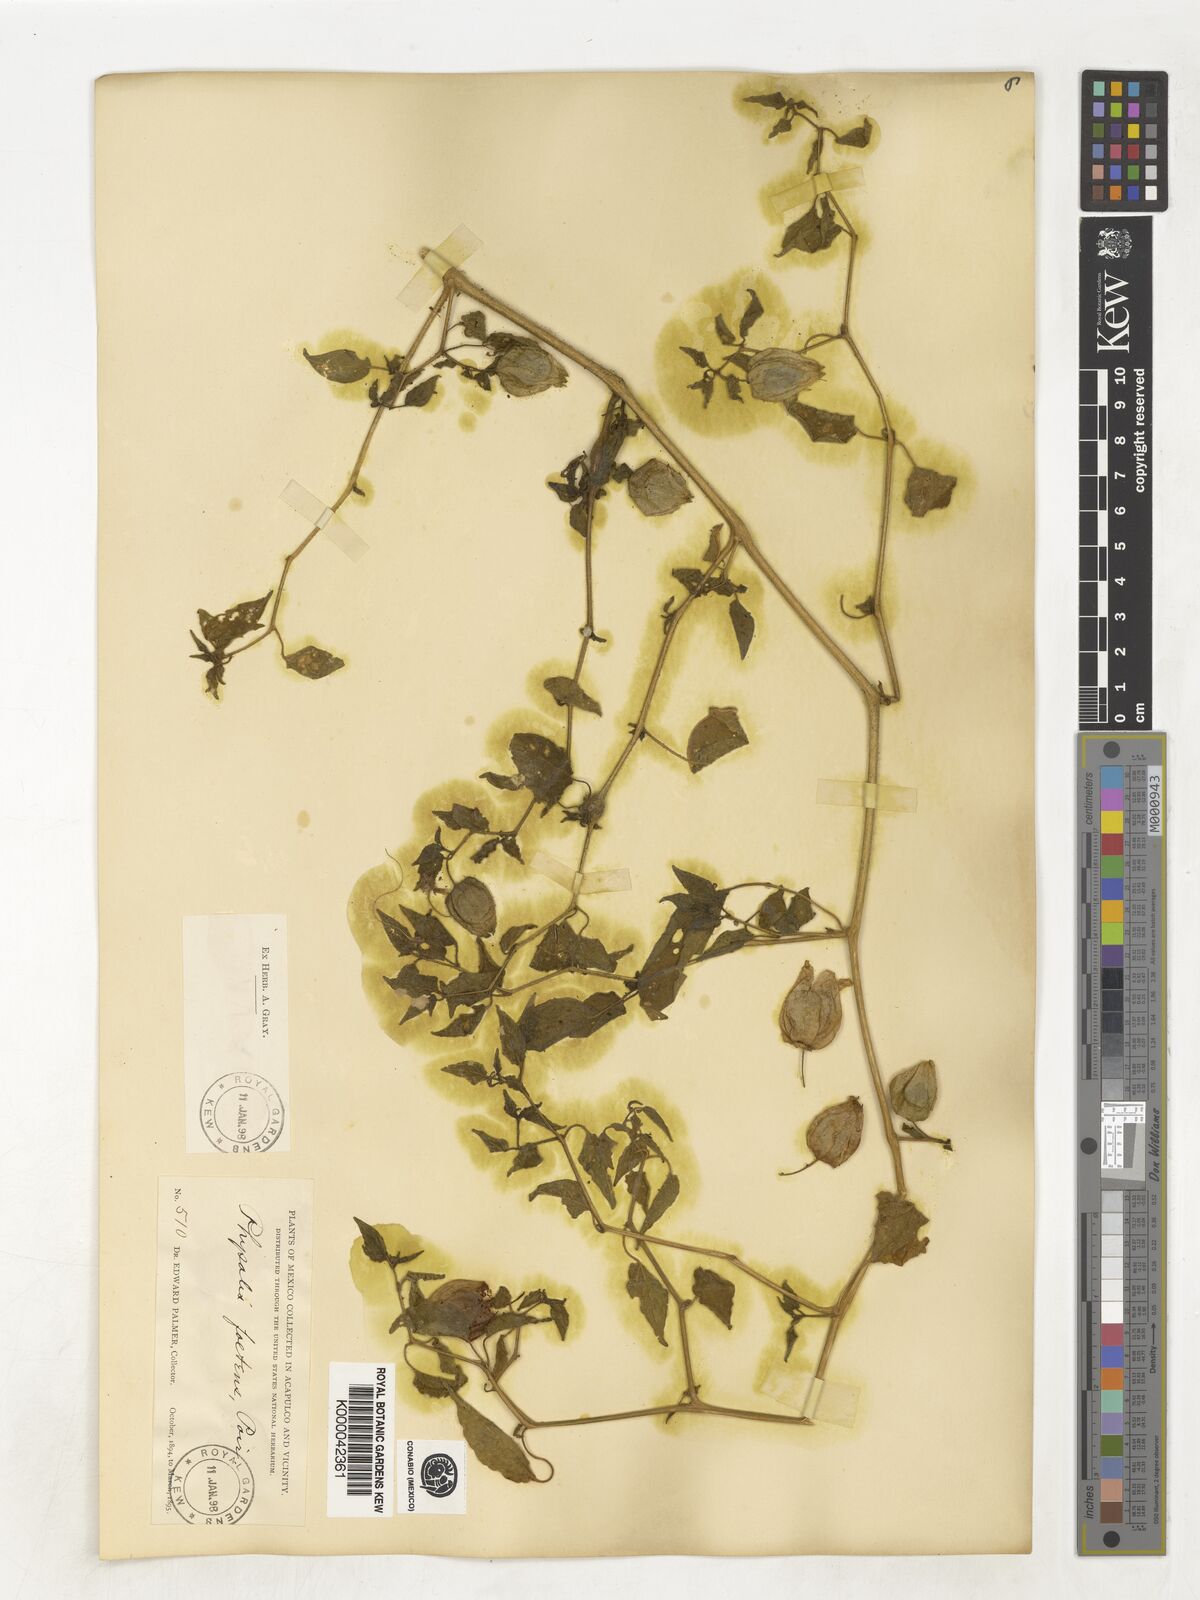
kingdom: Plantae
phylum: Tracheophyta
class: Magnoliopsida
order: Solanales
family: Solanaceae
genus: Physalis
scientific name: Physalis pubescens
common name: Downy ground-cherry
